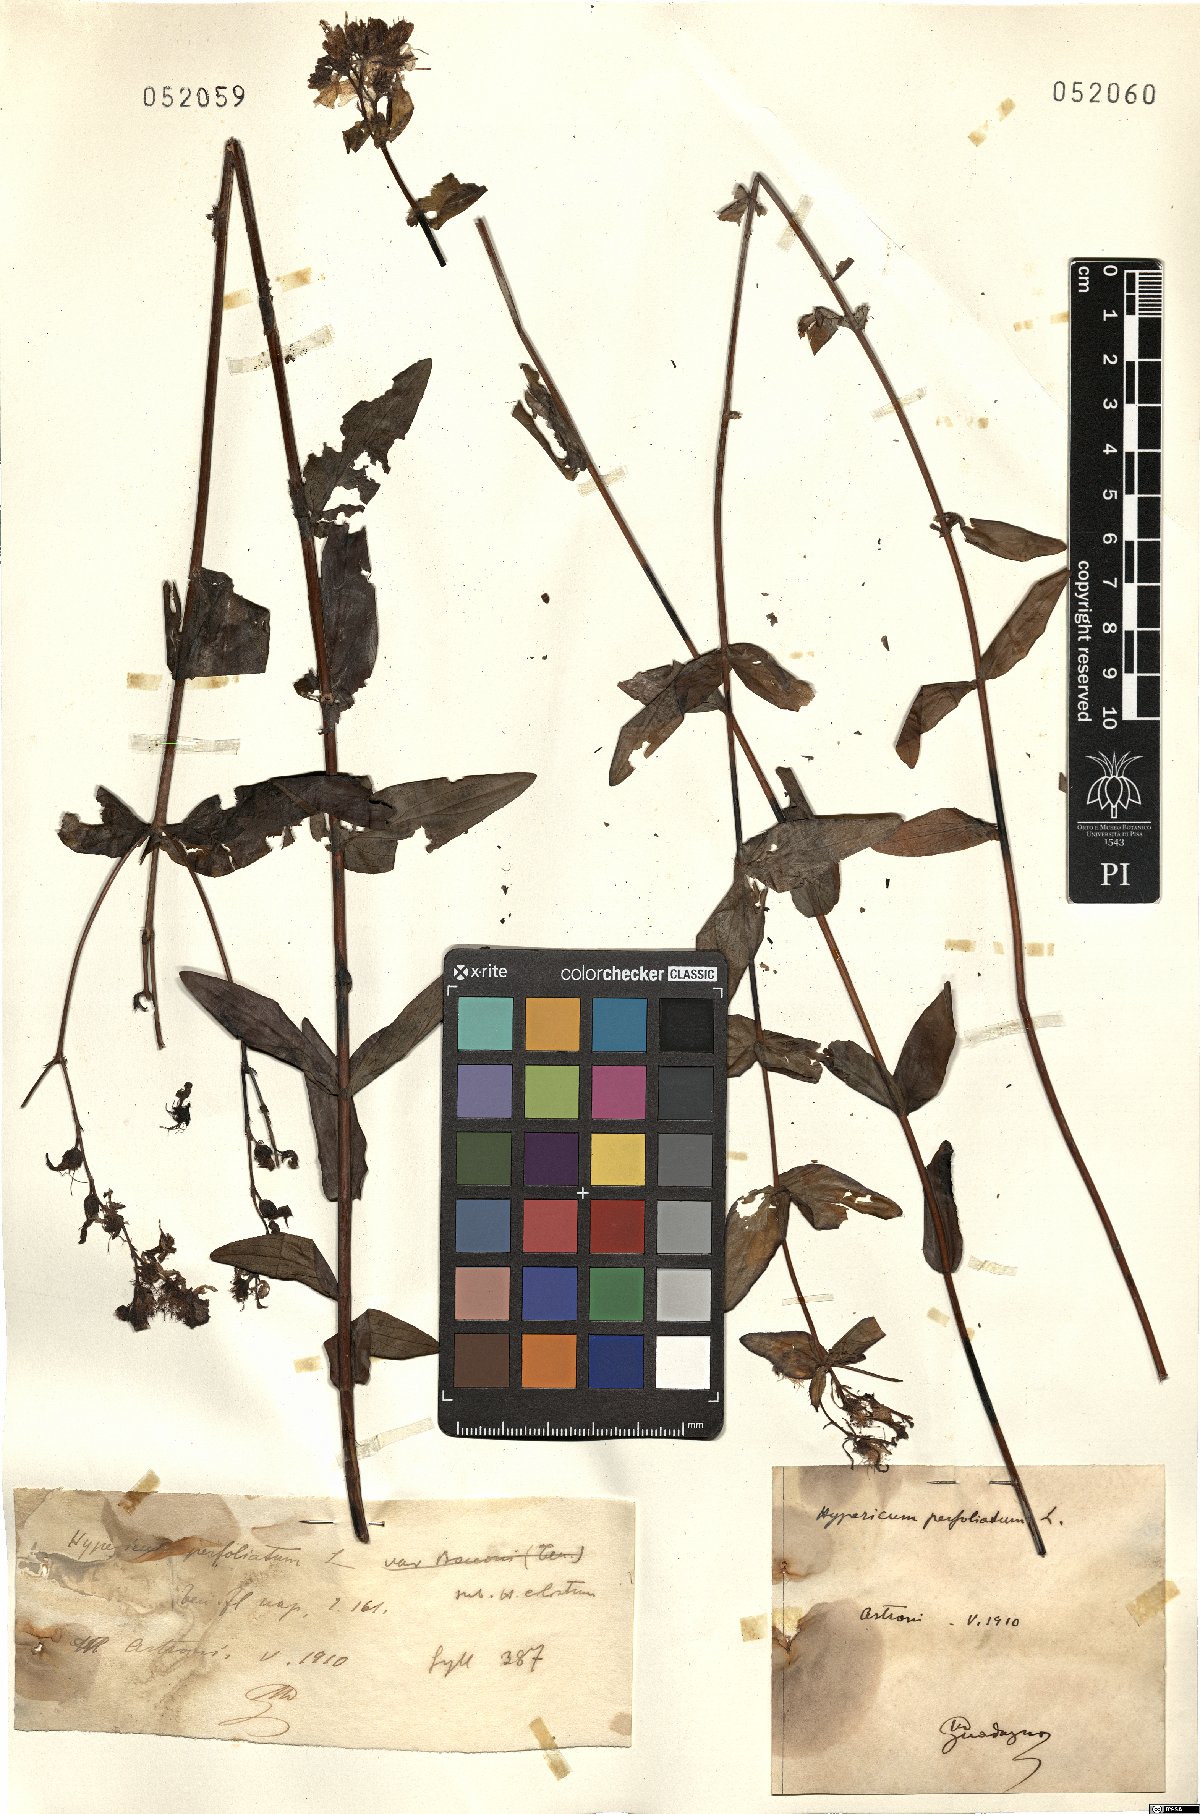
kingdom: Plantae
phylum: Tracheophyta
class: Magnoliopsida
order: Malpighiales
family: Hypericaceae
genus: Hypericum
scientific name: Hypericum perfoliatum
